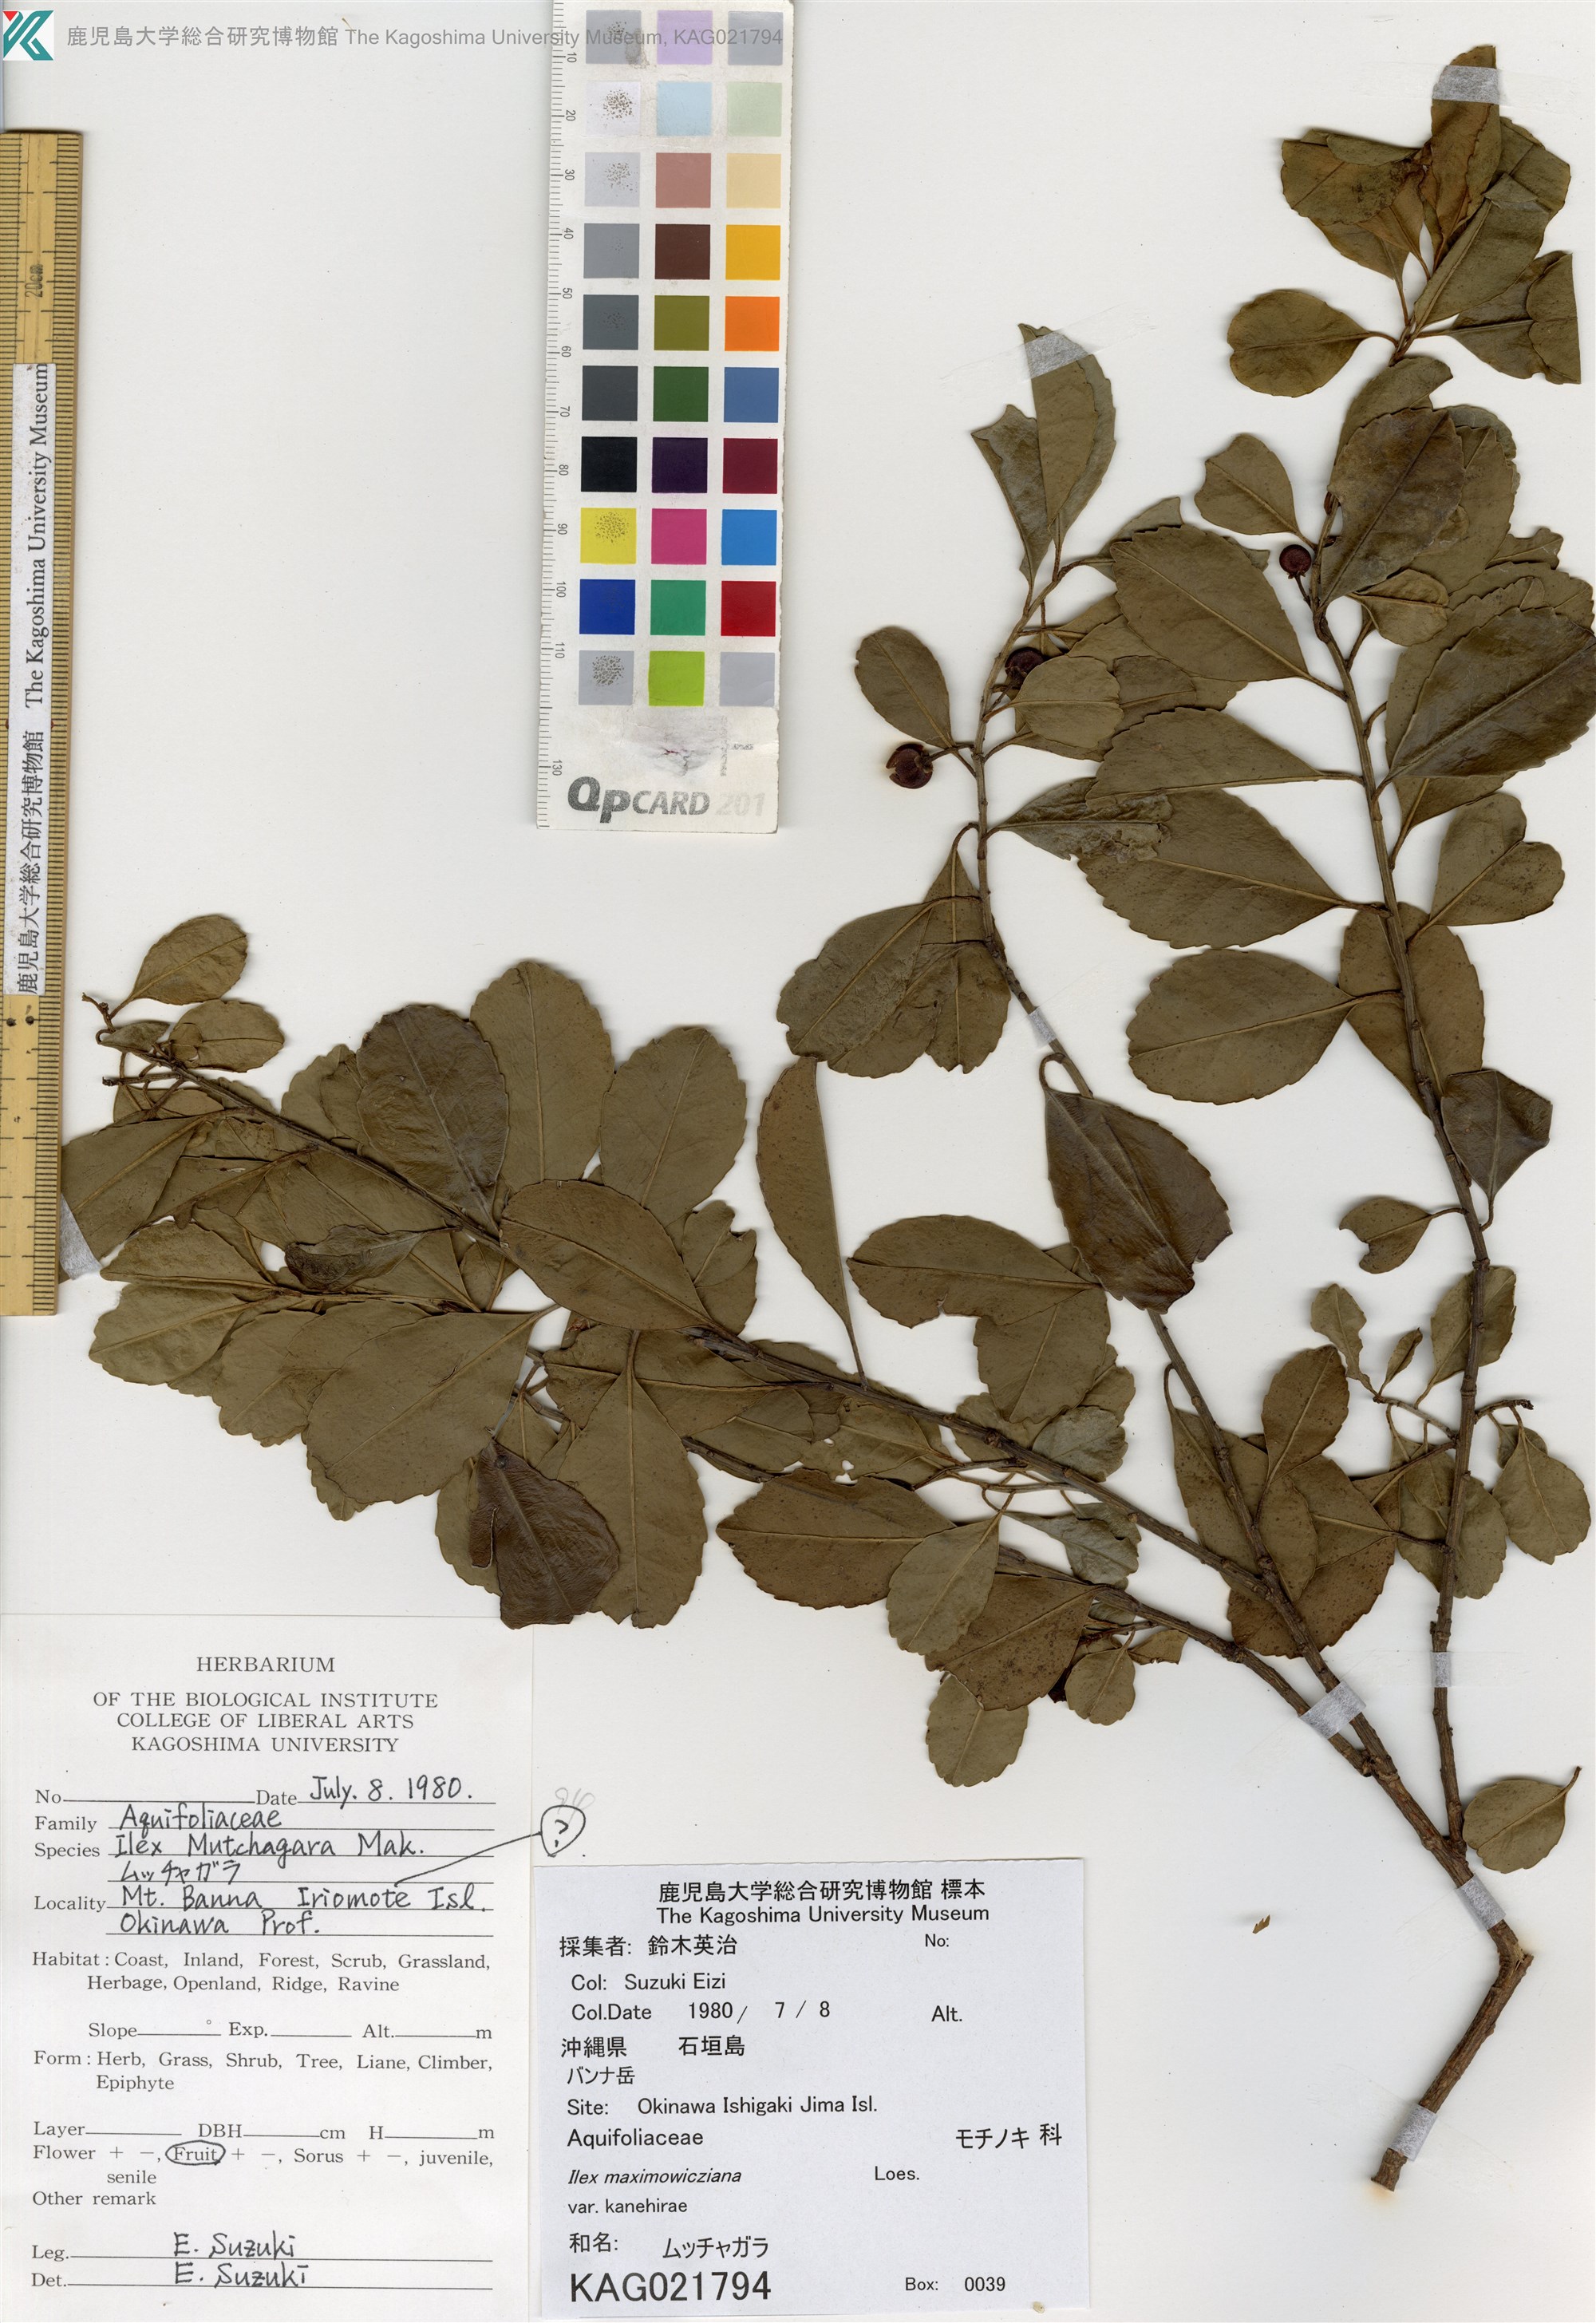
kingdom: Plantae
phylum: Tracheophyta
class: Magnoliopsida
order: Aquifoliales
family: Aquifoliaceae
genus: Ilex
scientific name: Ilex maximowicziana
